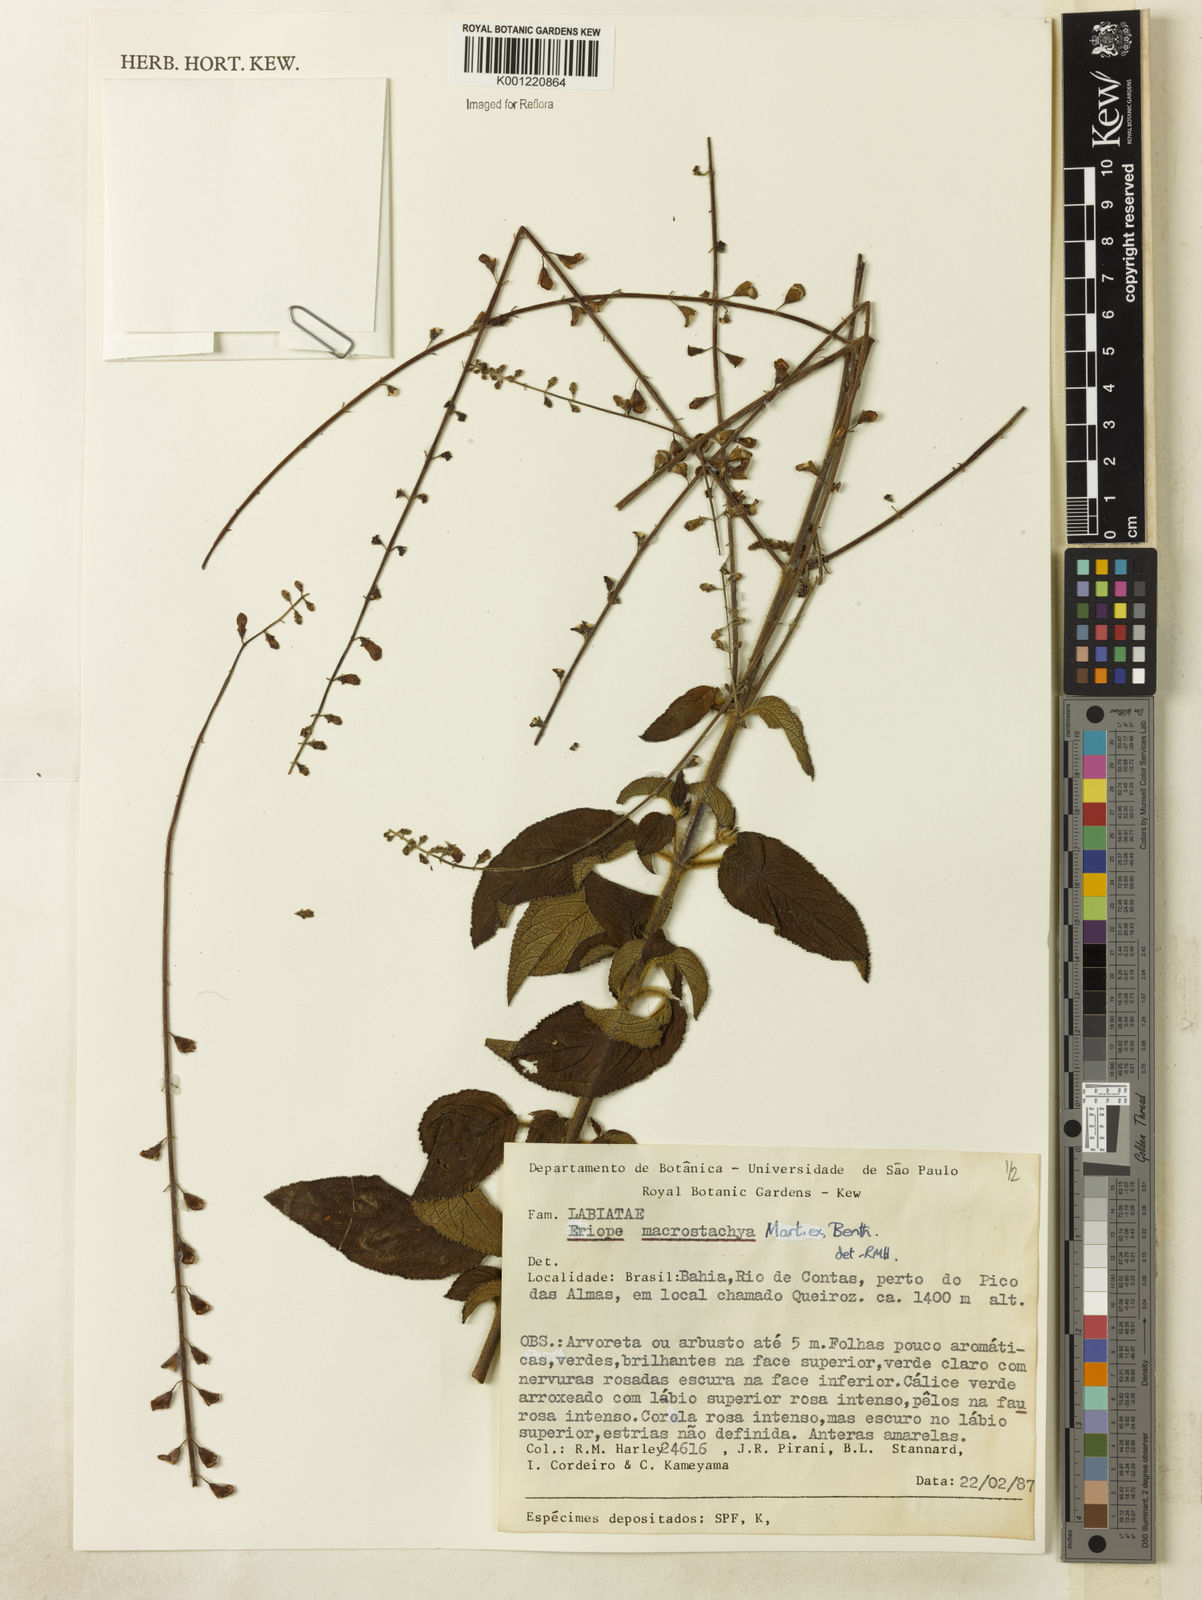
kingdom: Plantae
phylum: Tracheophyta
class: Magnoliopsida
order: Lamiales
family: Lamiaceae
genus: Eriope
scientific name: Eriope macrostachya
